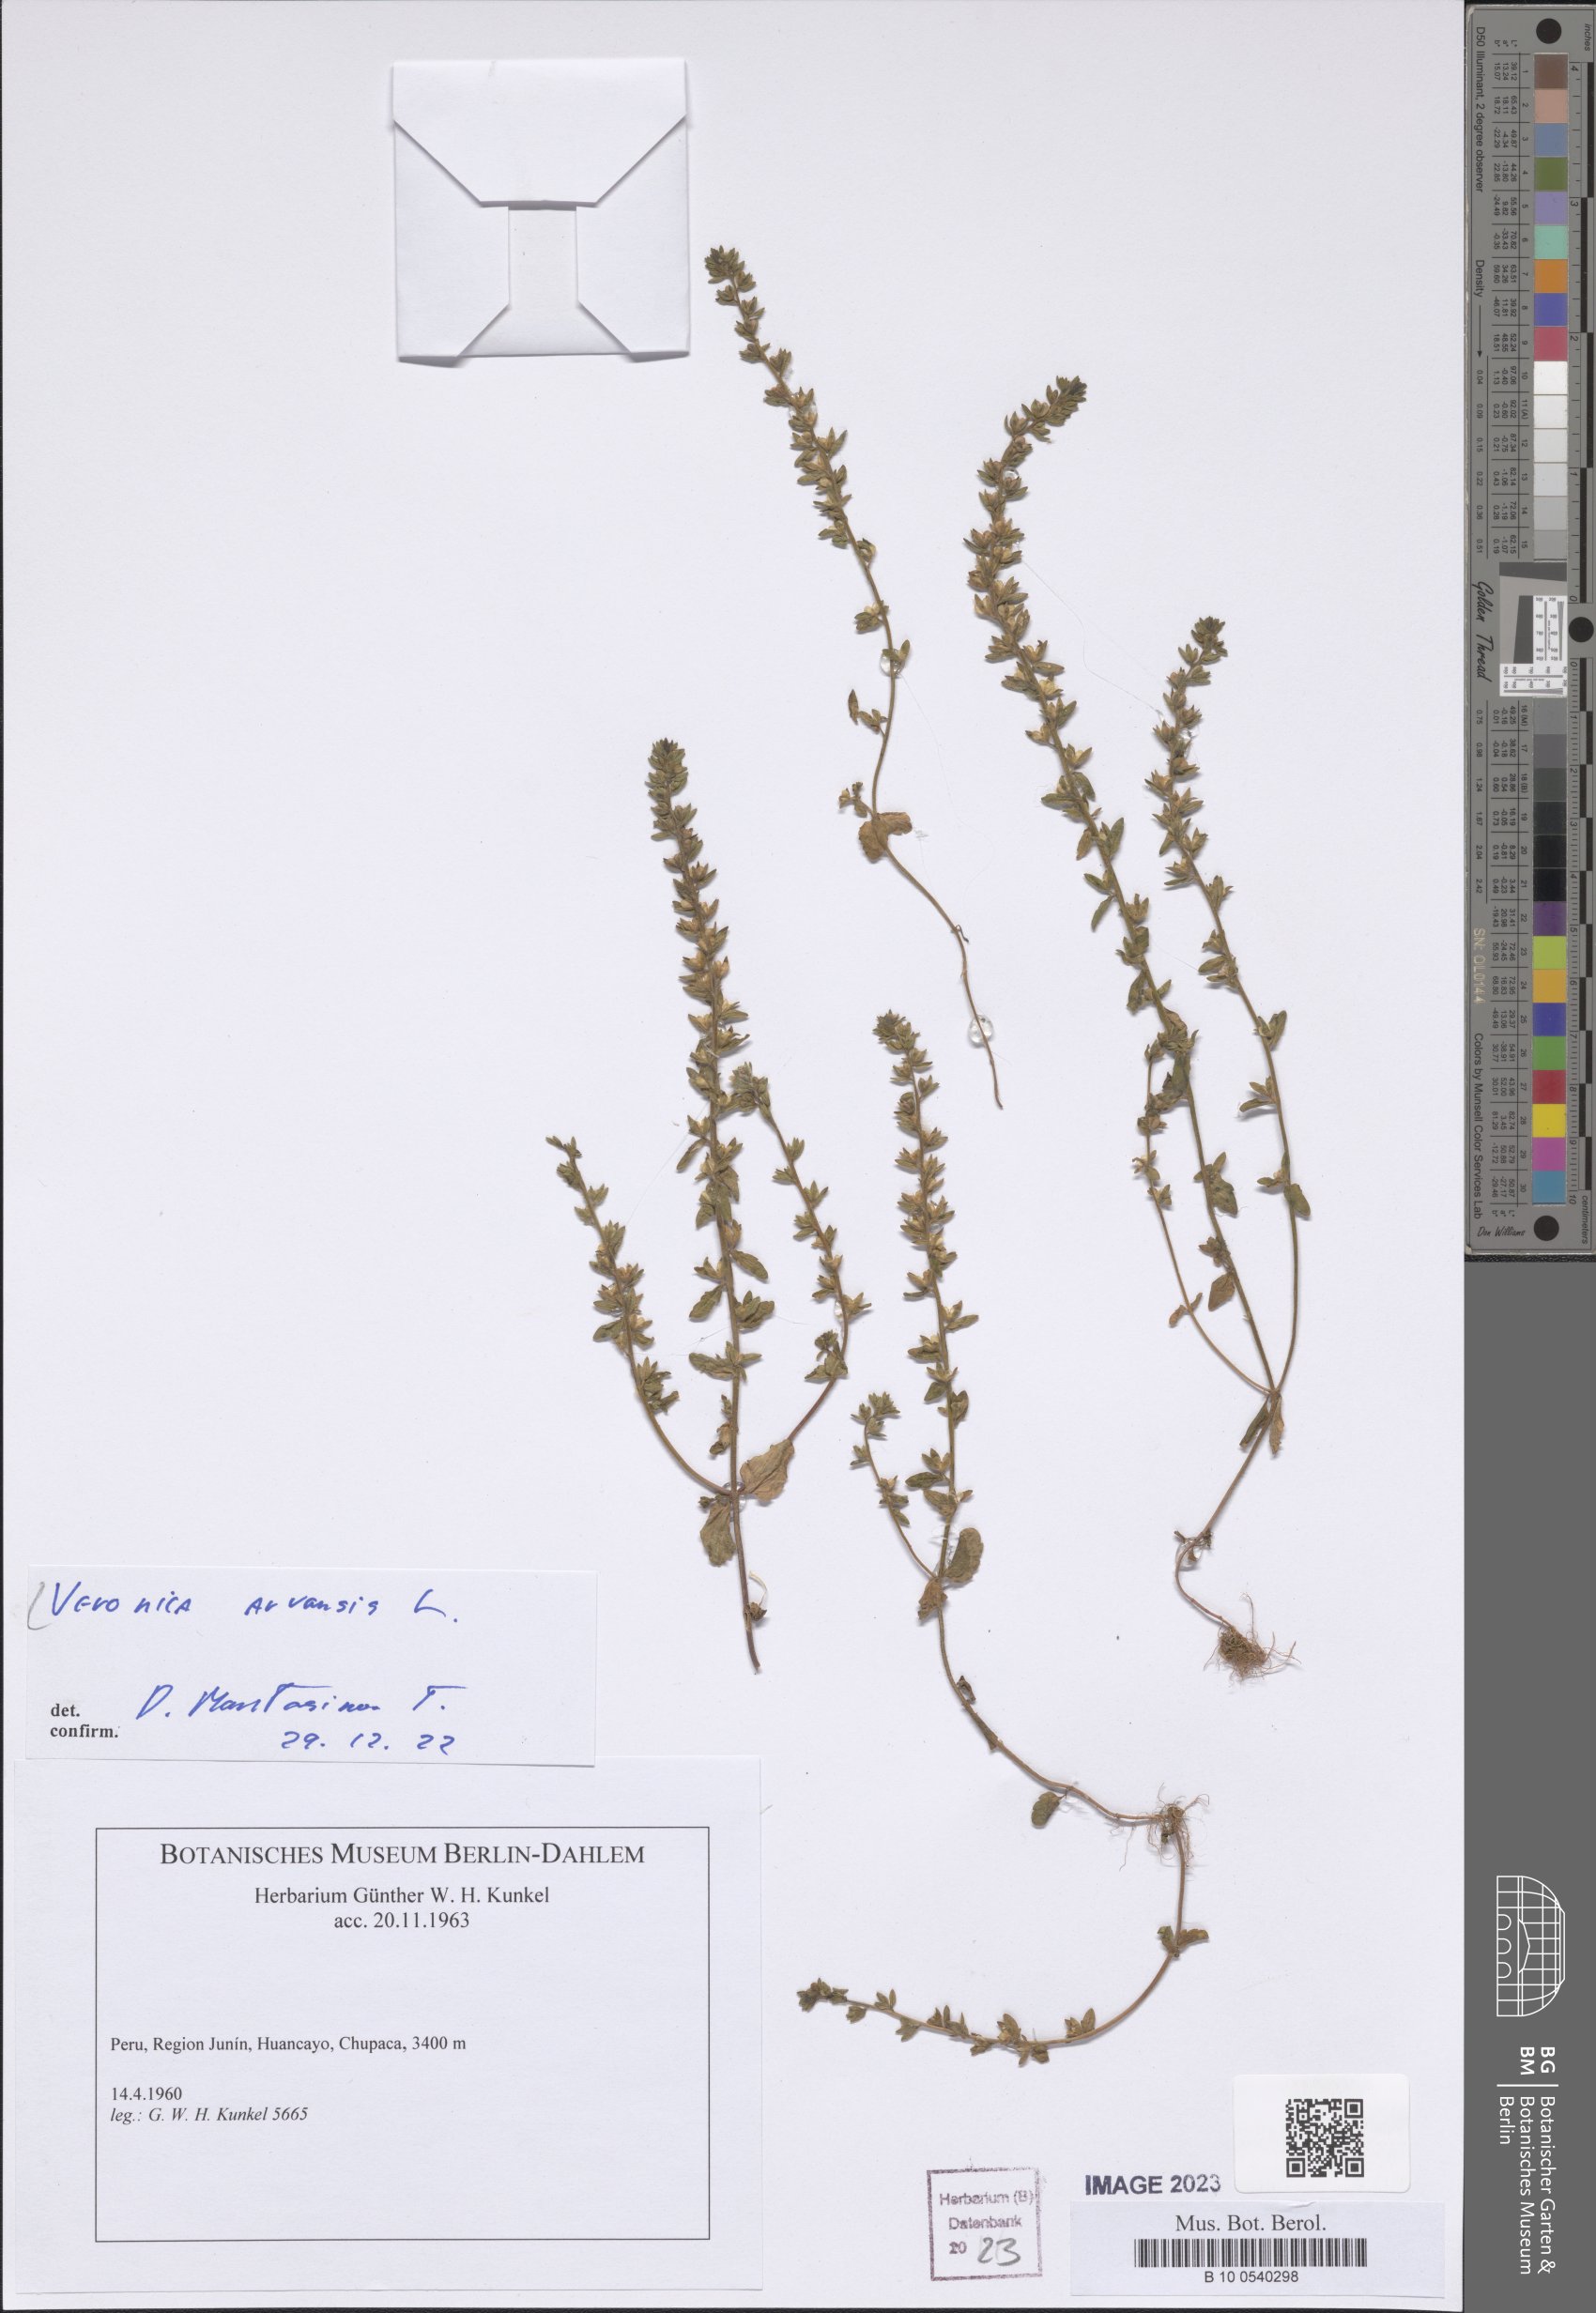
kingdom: Plantae
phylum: Tracheophyta
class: Magnoliopsida
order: Lamiales
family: Plantaginaceae
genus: Veronica
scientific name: Veronica agrestis
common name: Green field-speedwell
